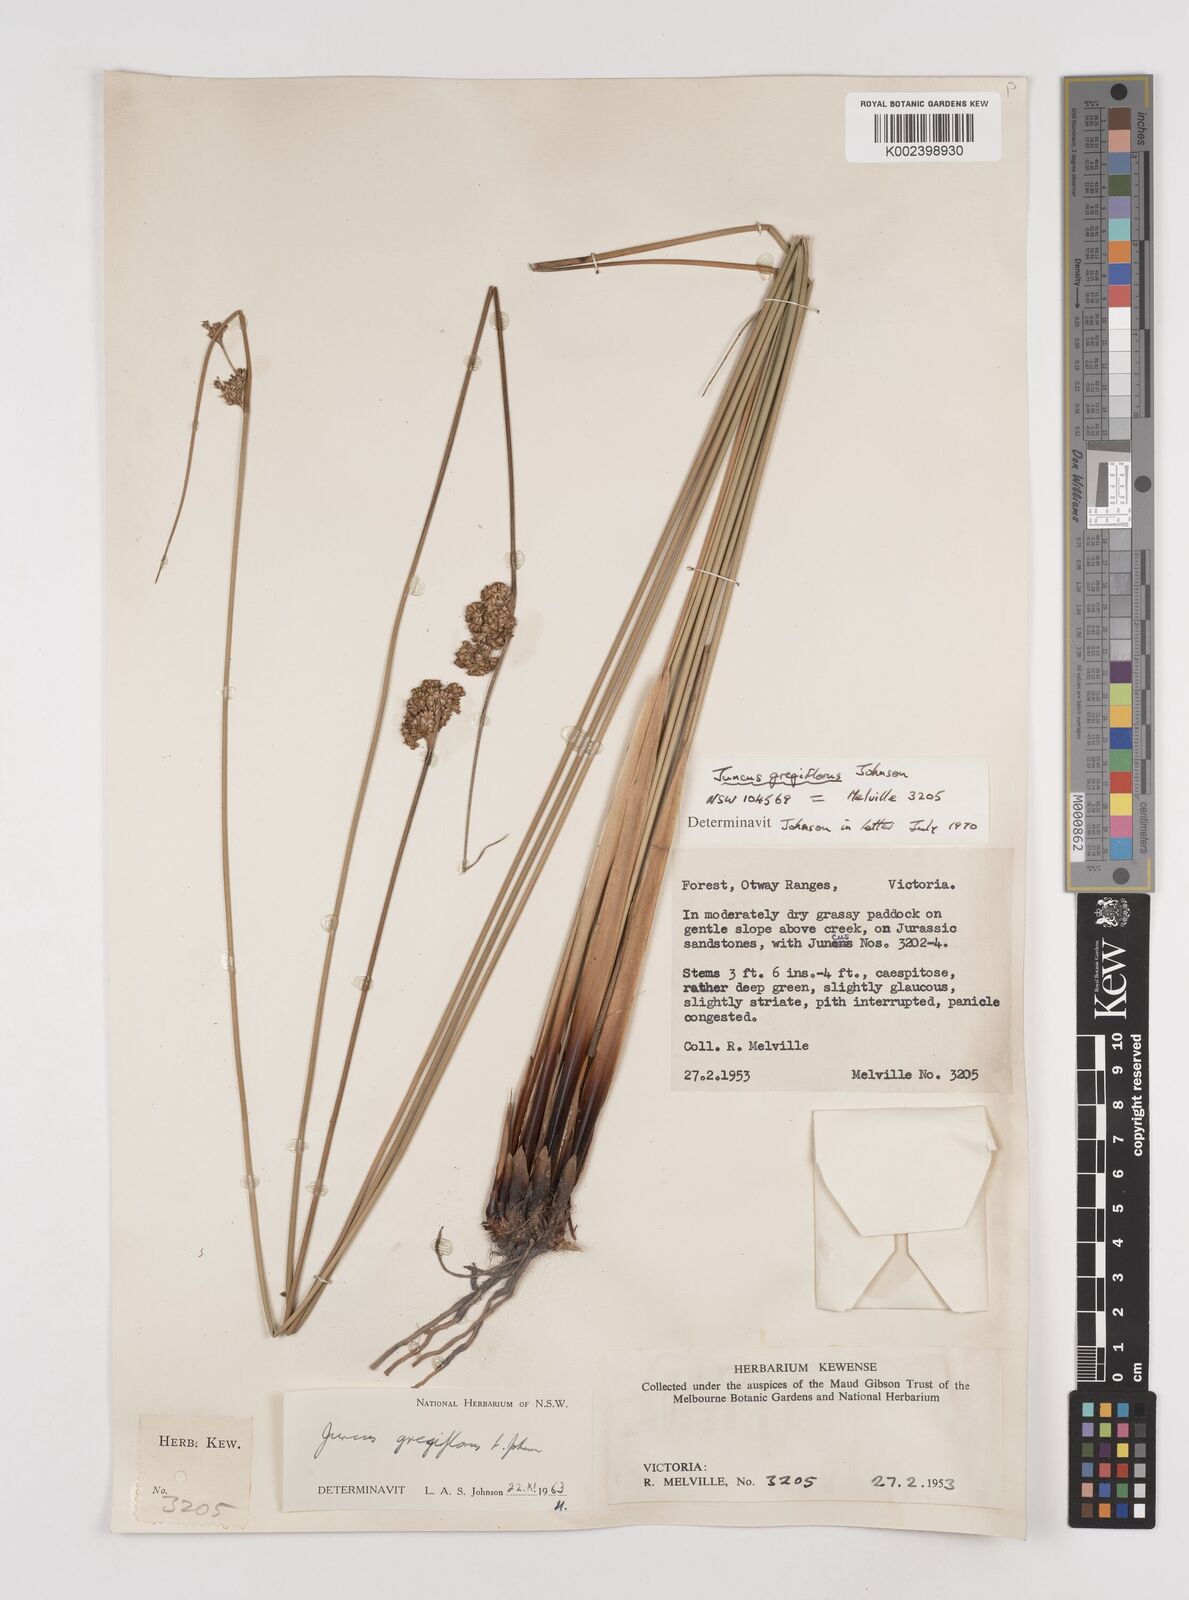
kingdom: Plantae
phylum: Tracheophyta
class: Liliopsida
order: Poales
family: Juncaceae
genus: Juncus
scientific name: Juncus gregiflorus
